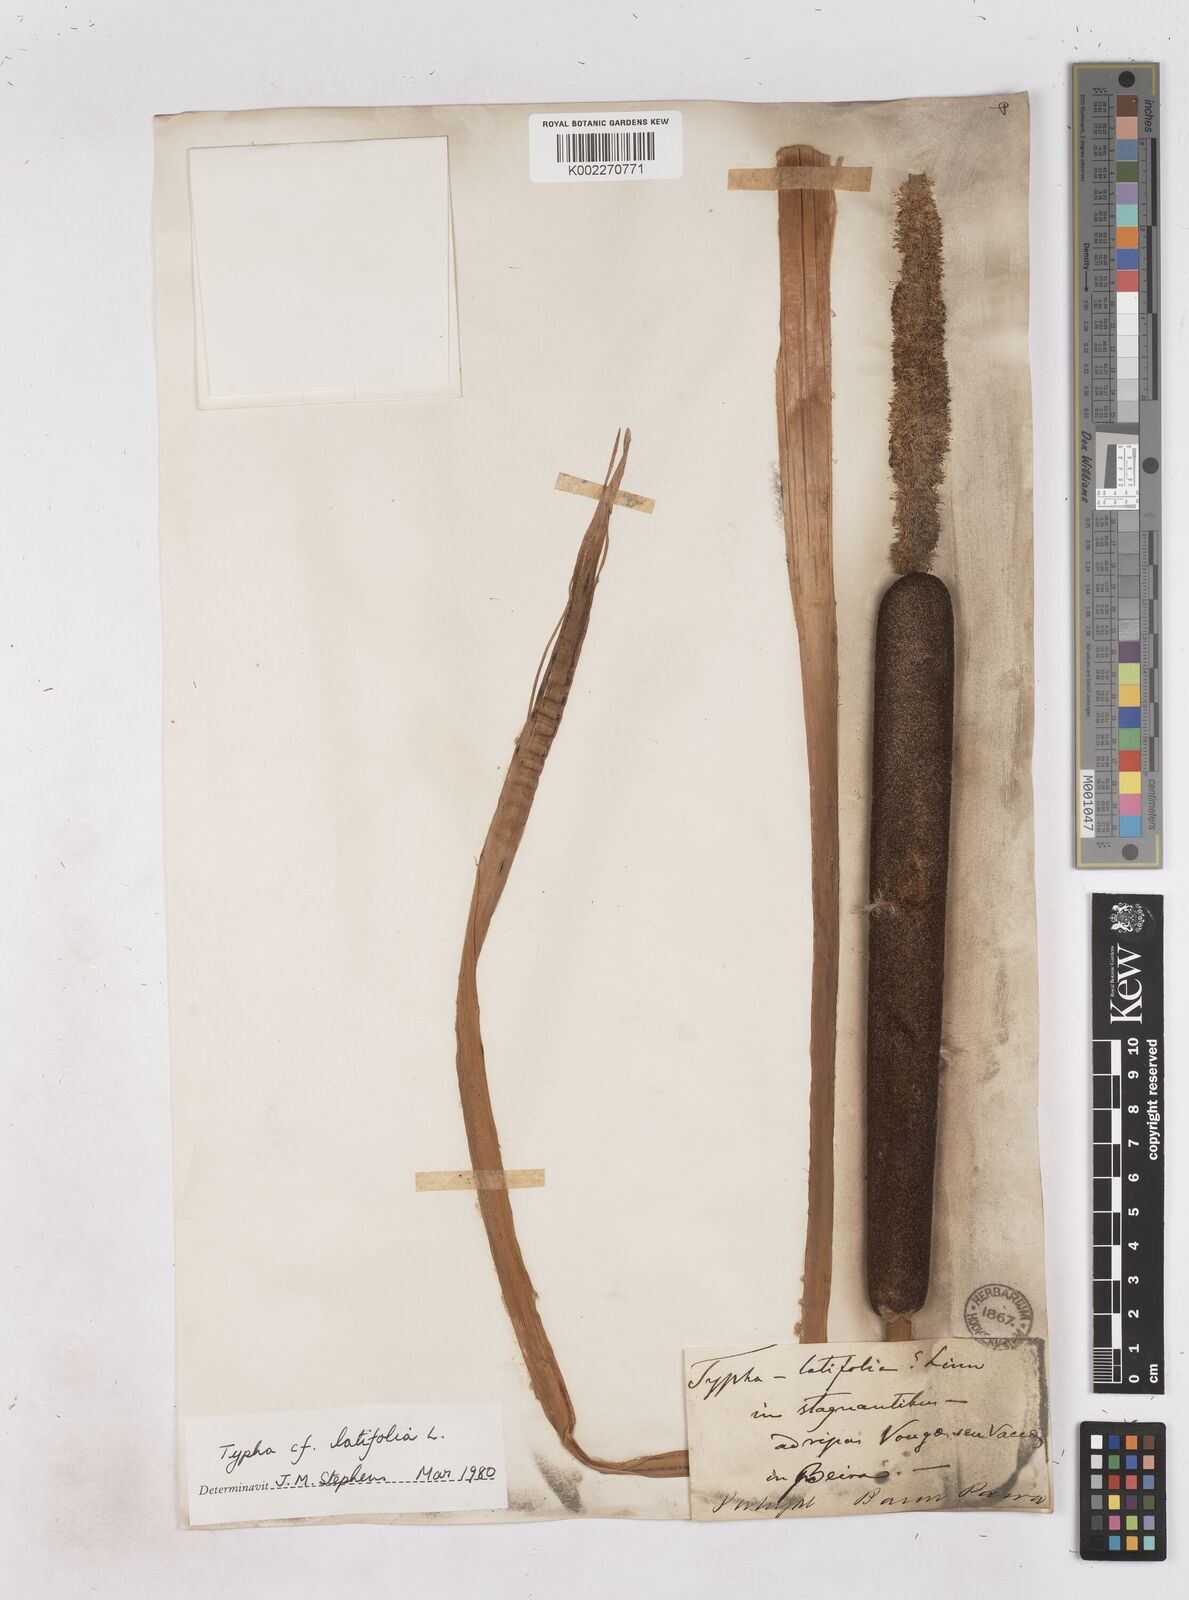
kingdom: Plantae
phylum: Tracheophyta
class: Liliopsida
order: Poales
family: Typhaceae
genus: Typha
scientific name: Typha latifolia
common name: Broadleaf cattail
